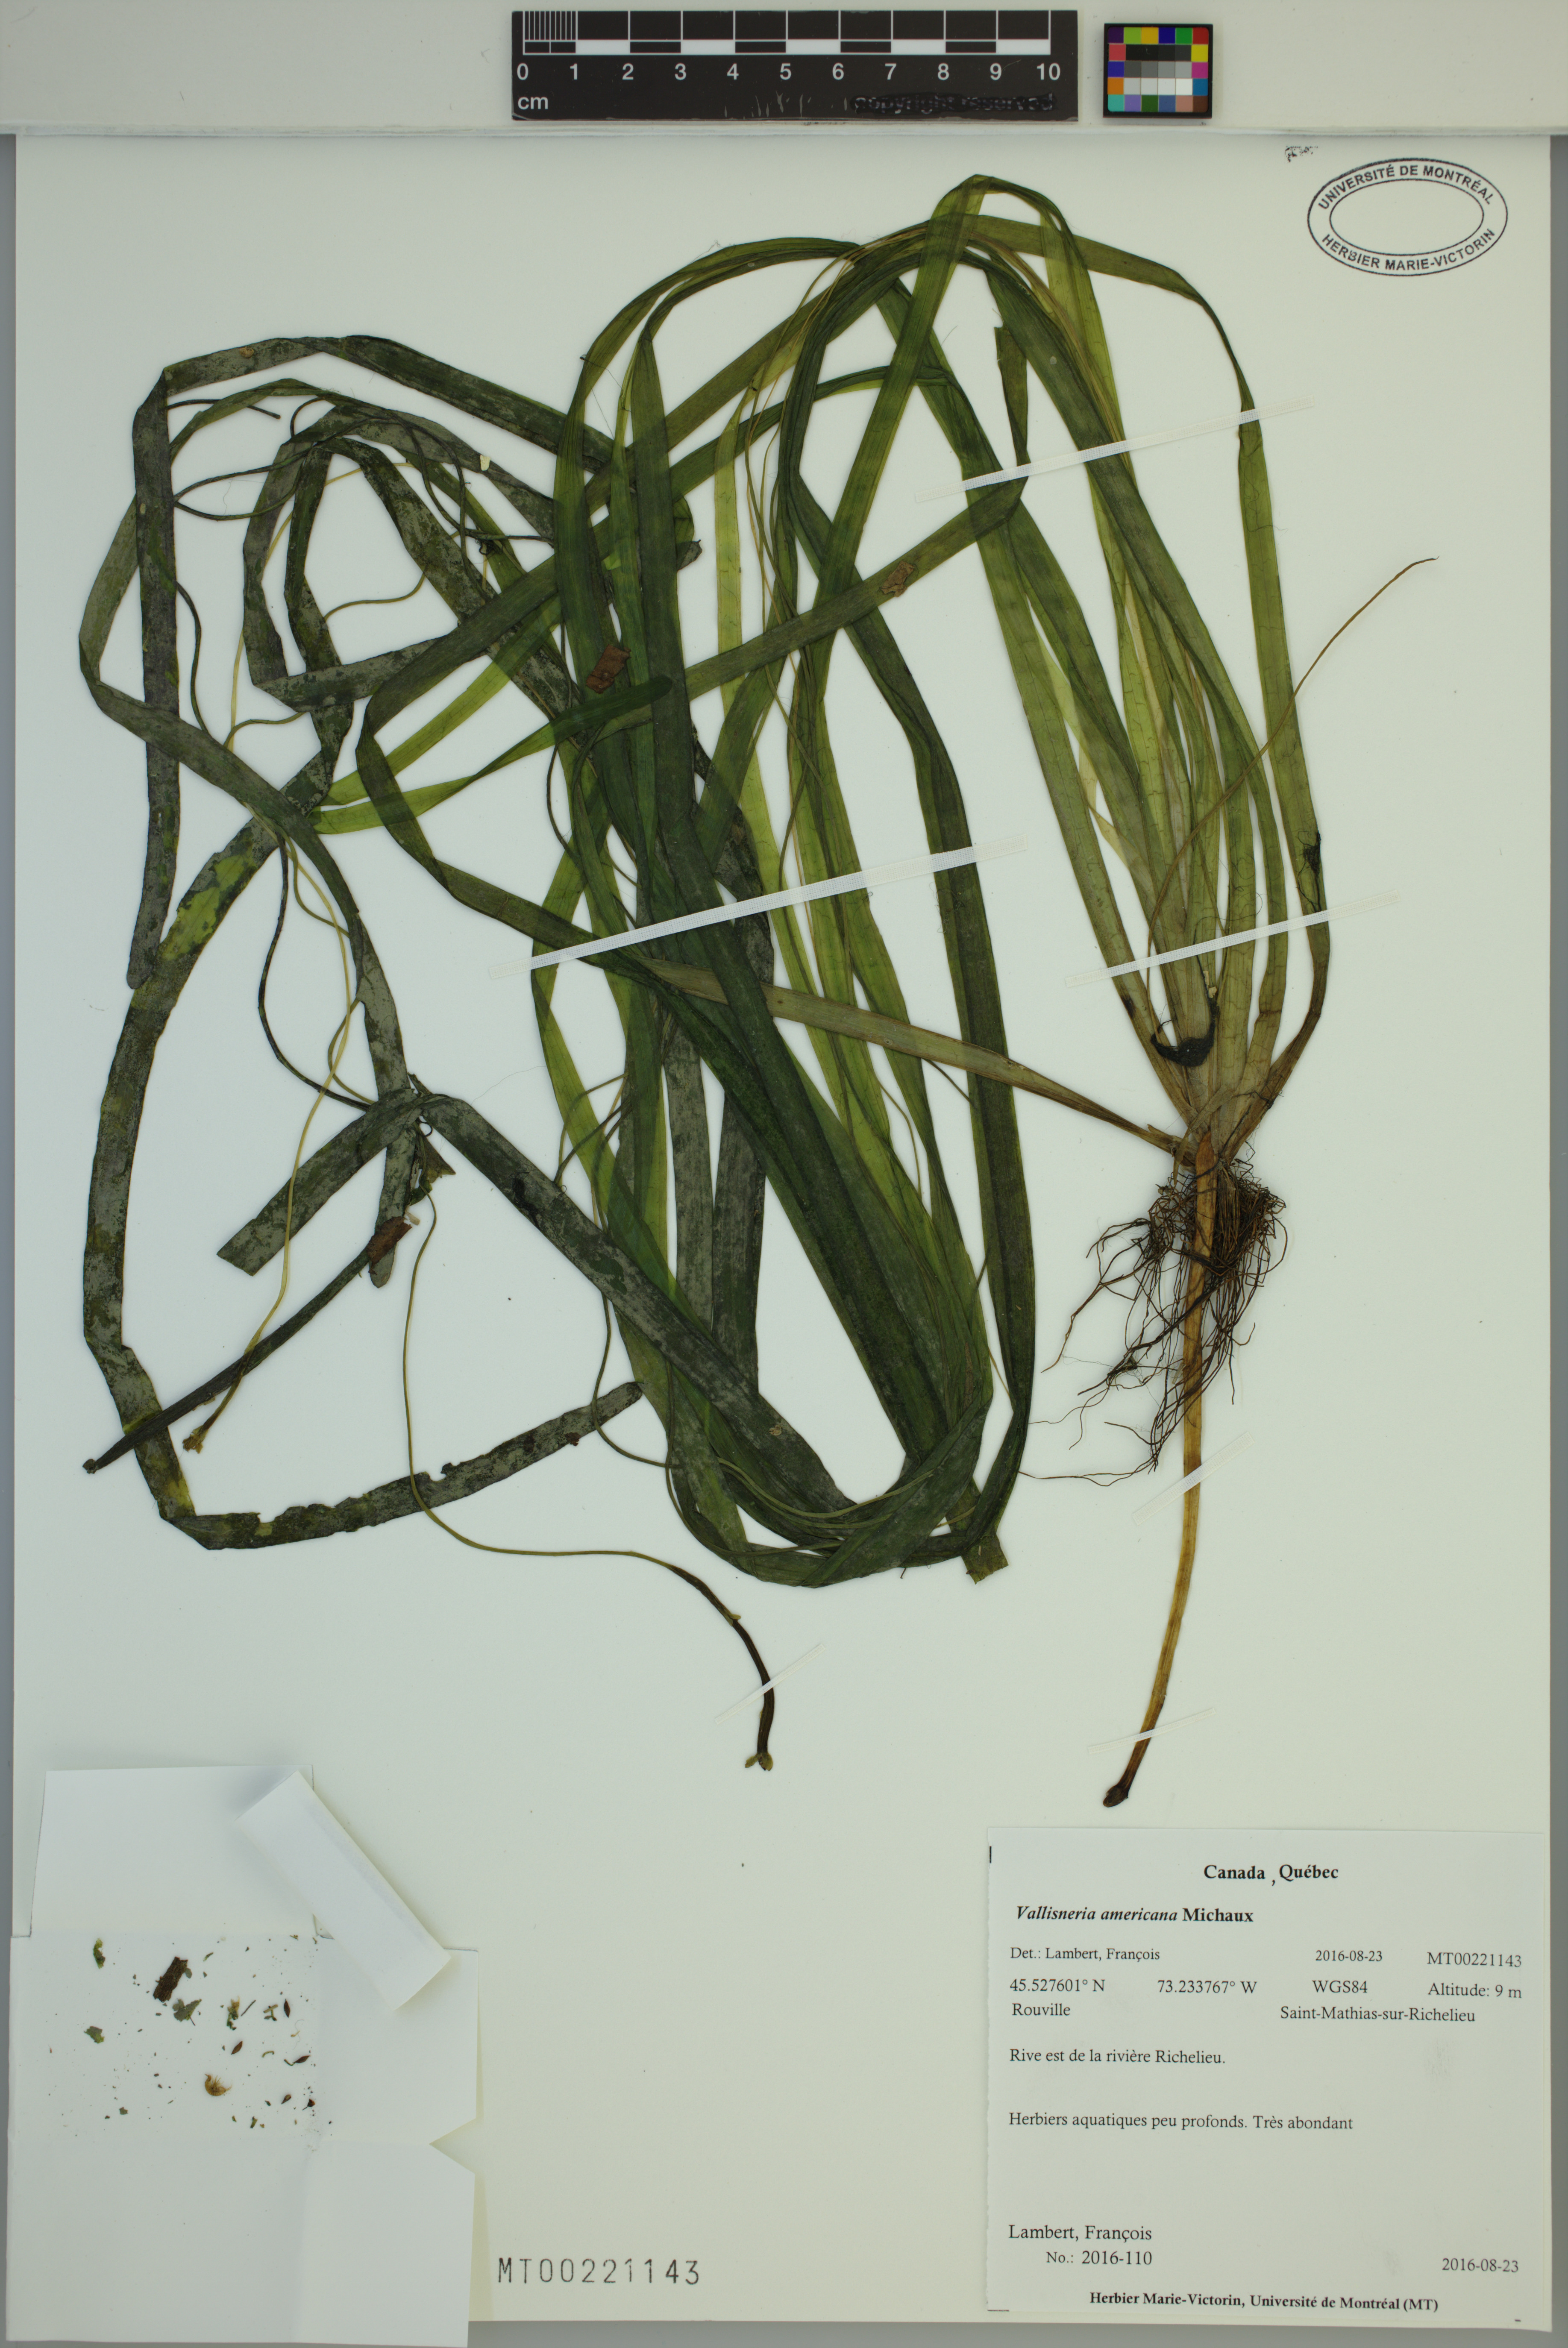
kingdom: Plantae
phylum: Tracheophyta
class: Liliopsida
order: Alismatales
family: Hydrocharitaceae
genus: Vallisneria
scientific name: Vallisneria americana
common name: American eelgrass
